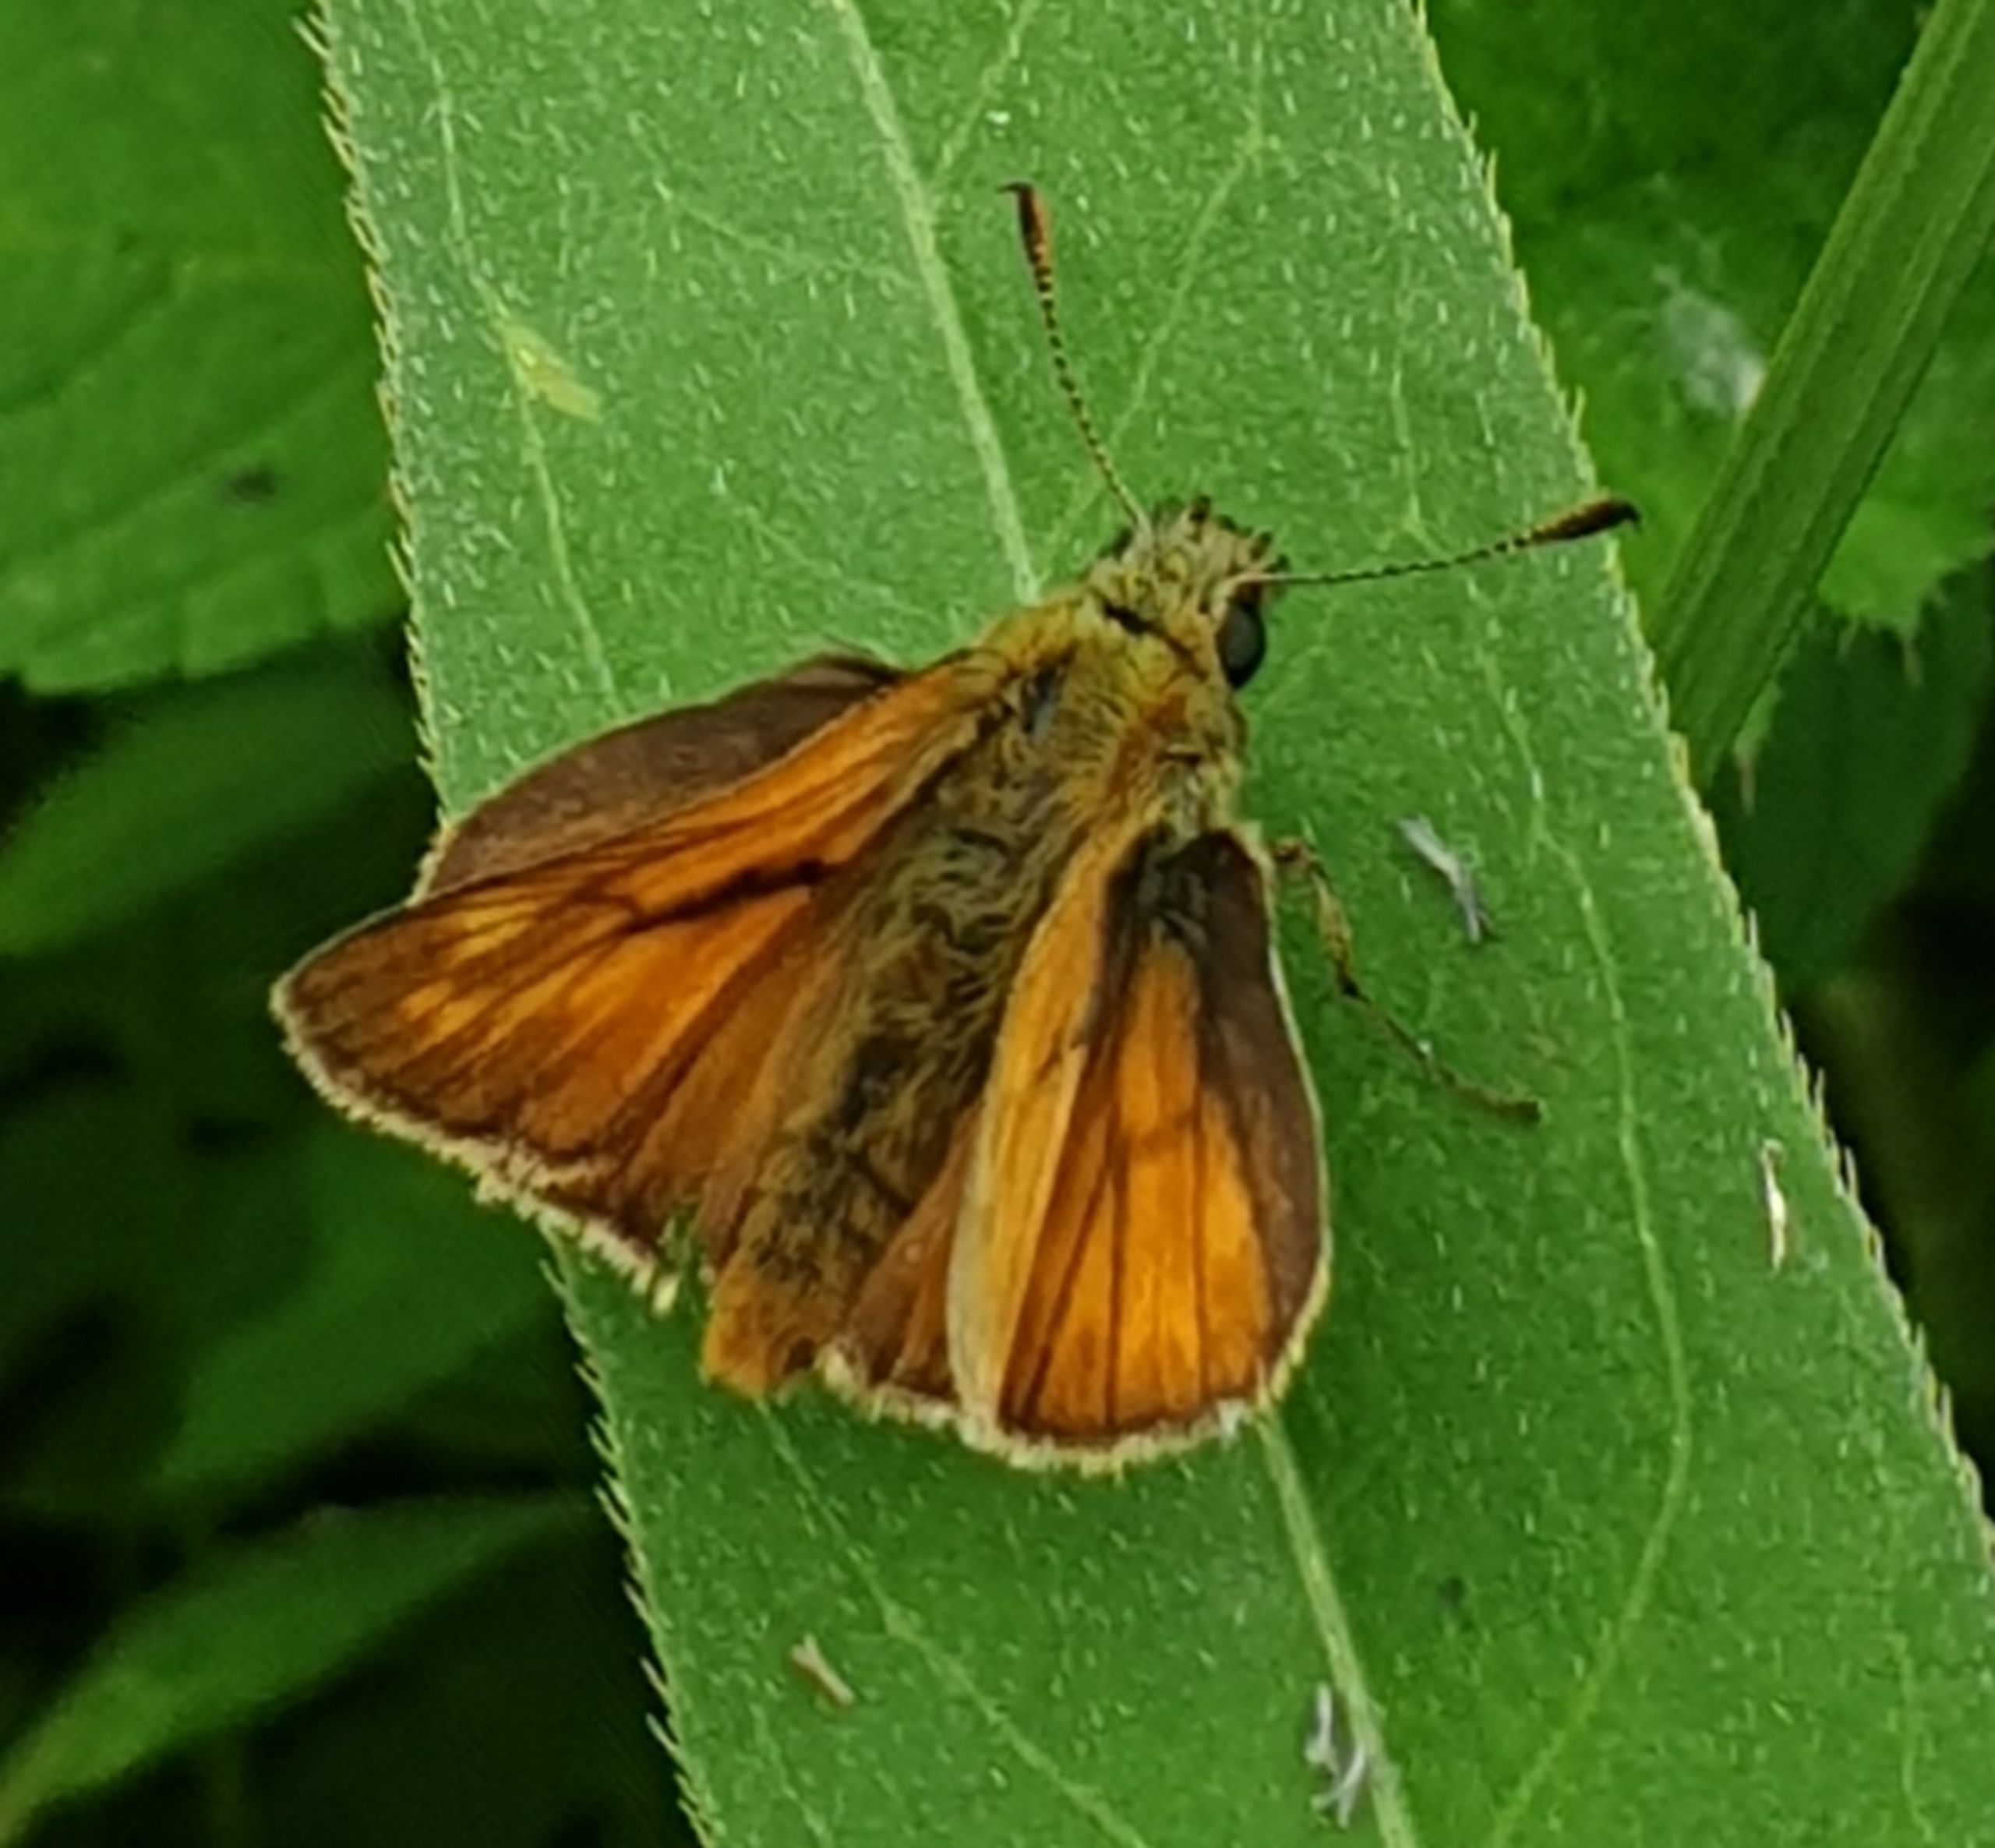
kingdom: Animalia
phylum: Arthropoda
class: Insecta
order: Lepidoptera
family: Hesperiidae
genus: Ochlodes
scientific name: Ochlodes venata
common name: Stor bredpande
